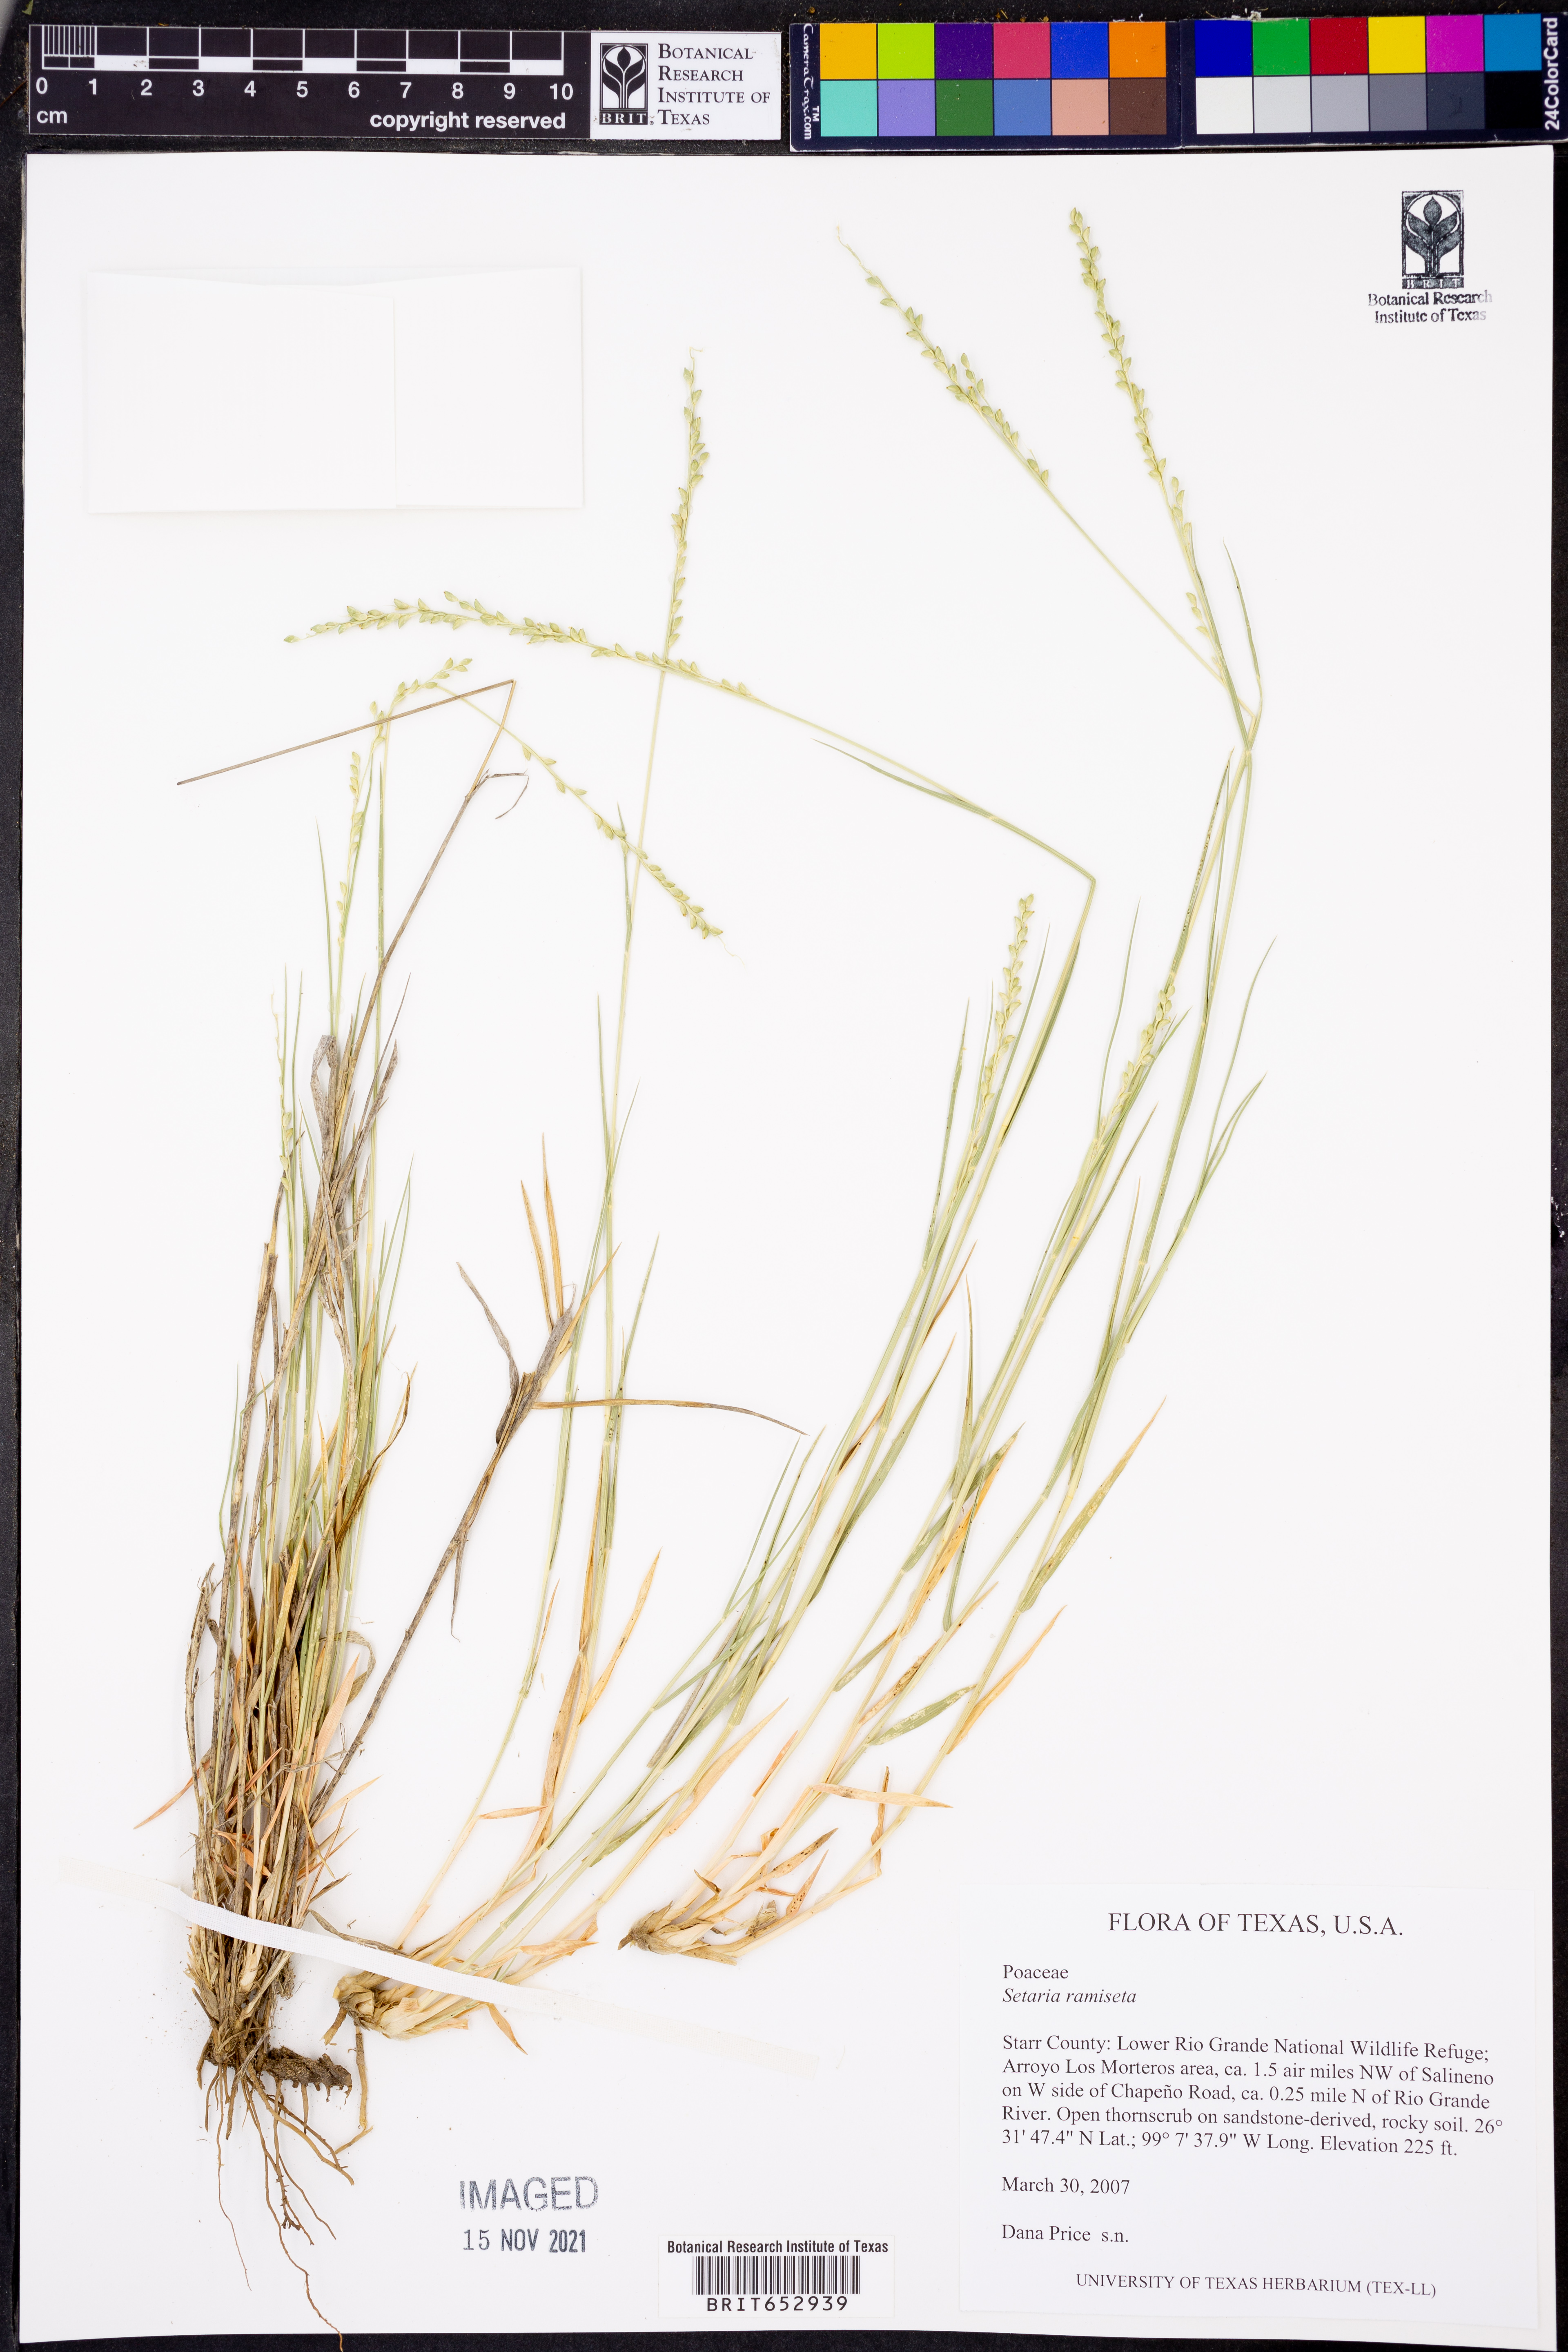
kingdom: Plantae
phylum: Tracheophyta
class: Liliopsida
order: Poales
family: Poaceae
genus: Setaria
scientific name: Setaria reverchonii
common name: Reverchon's bristle grass
